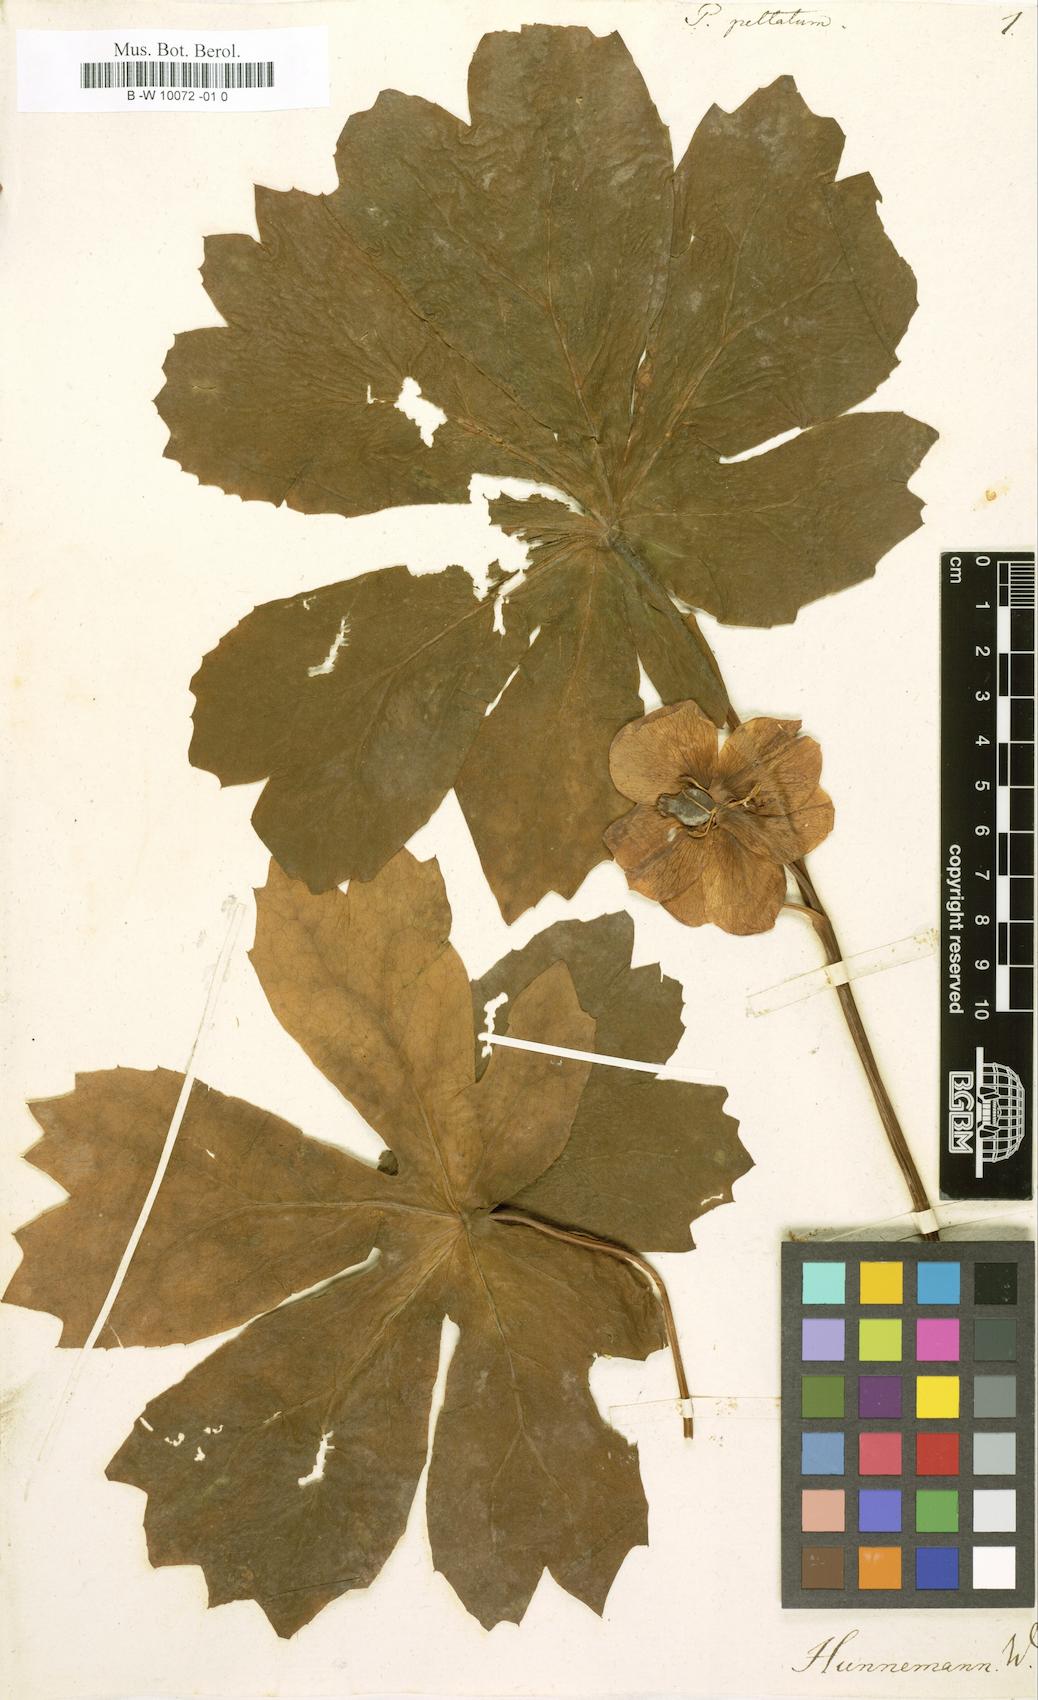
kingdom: Plantae
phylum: Tracheophyta
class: Magnoliopsida
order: Ranunculales
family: Berberidaceae
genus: Podophyllum
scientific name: Podophyllum peltatum
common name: Wild mandrake
